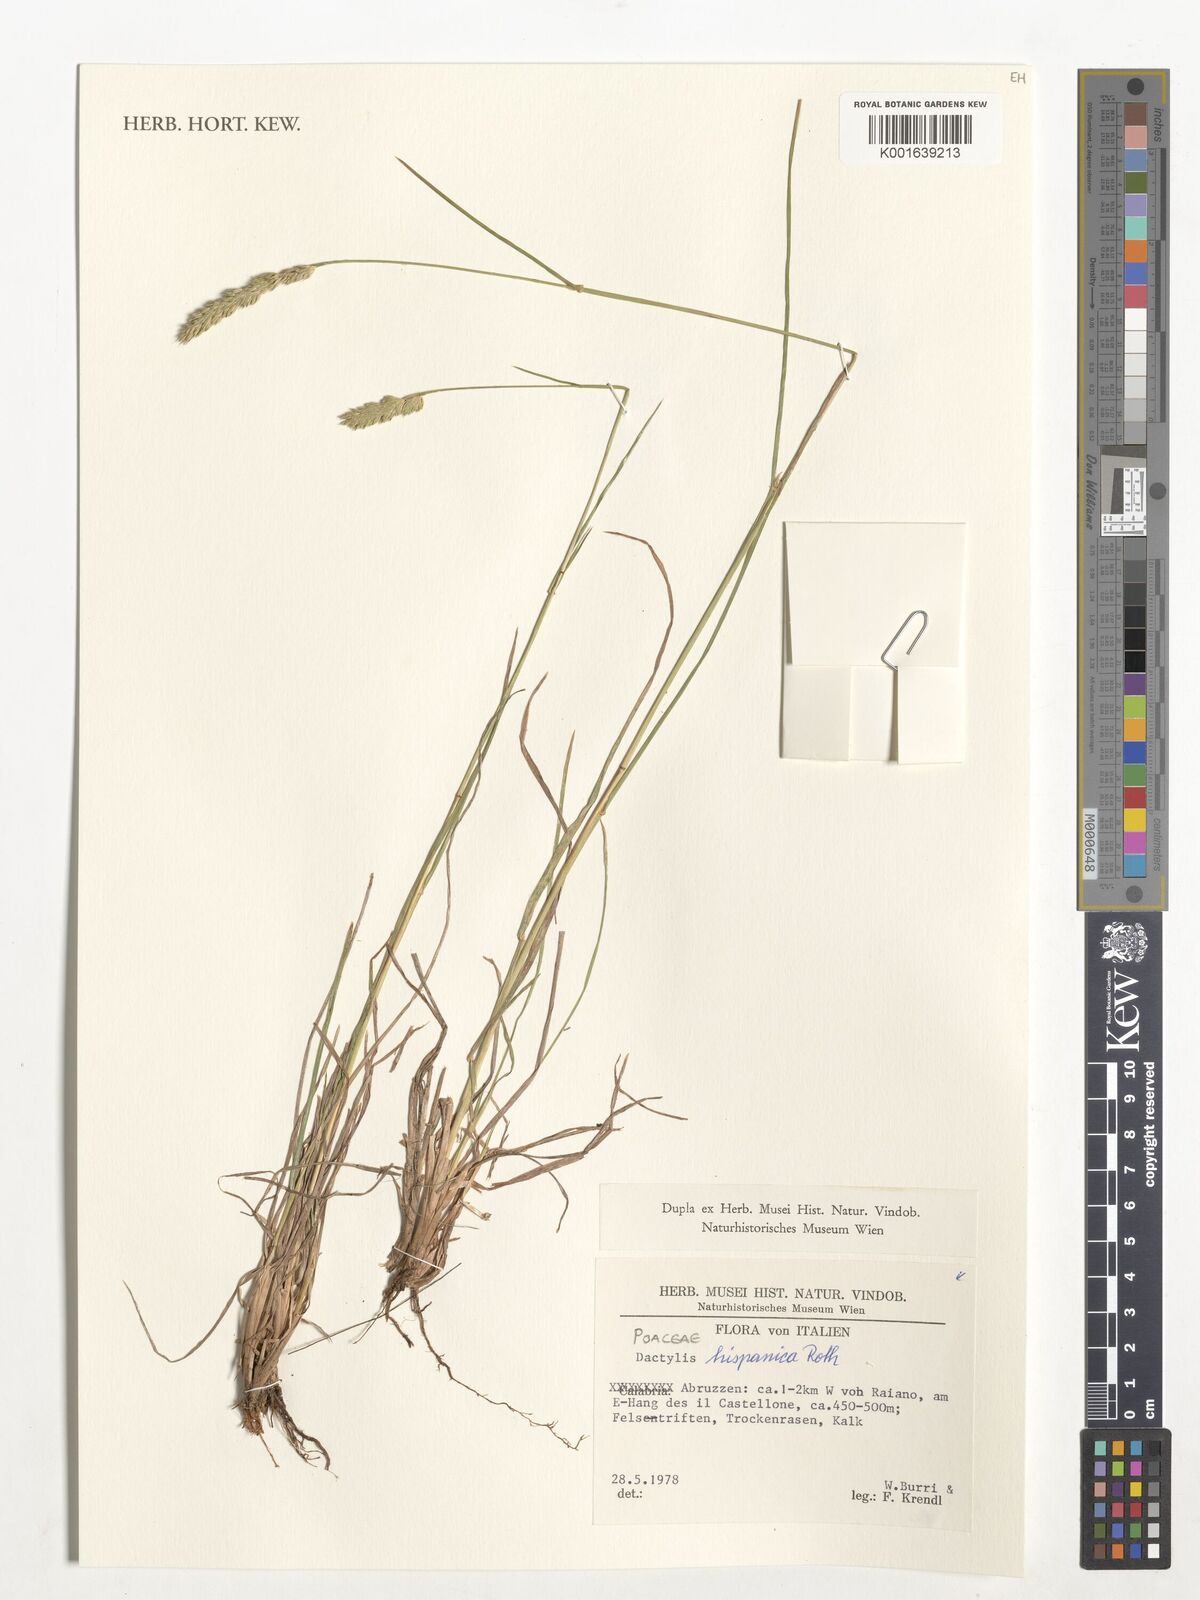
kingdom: Plantae
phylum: Tracheophyta
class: Liliopsida
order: Poales
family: Poaceae
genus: Dactylis
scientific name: Dactylis glomerata
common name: Orchardgrass
